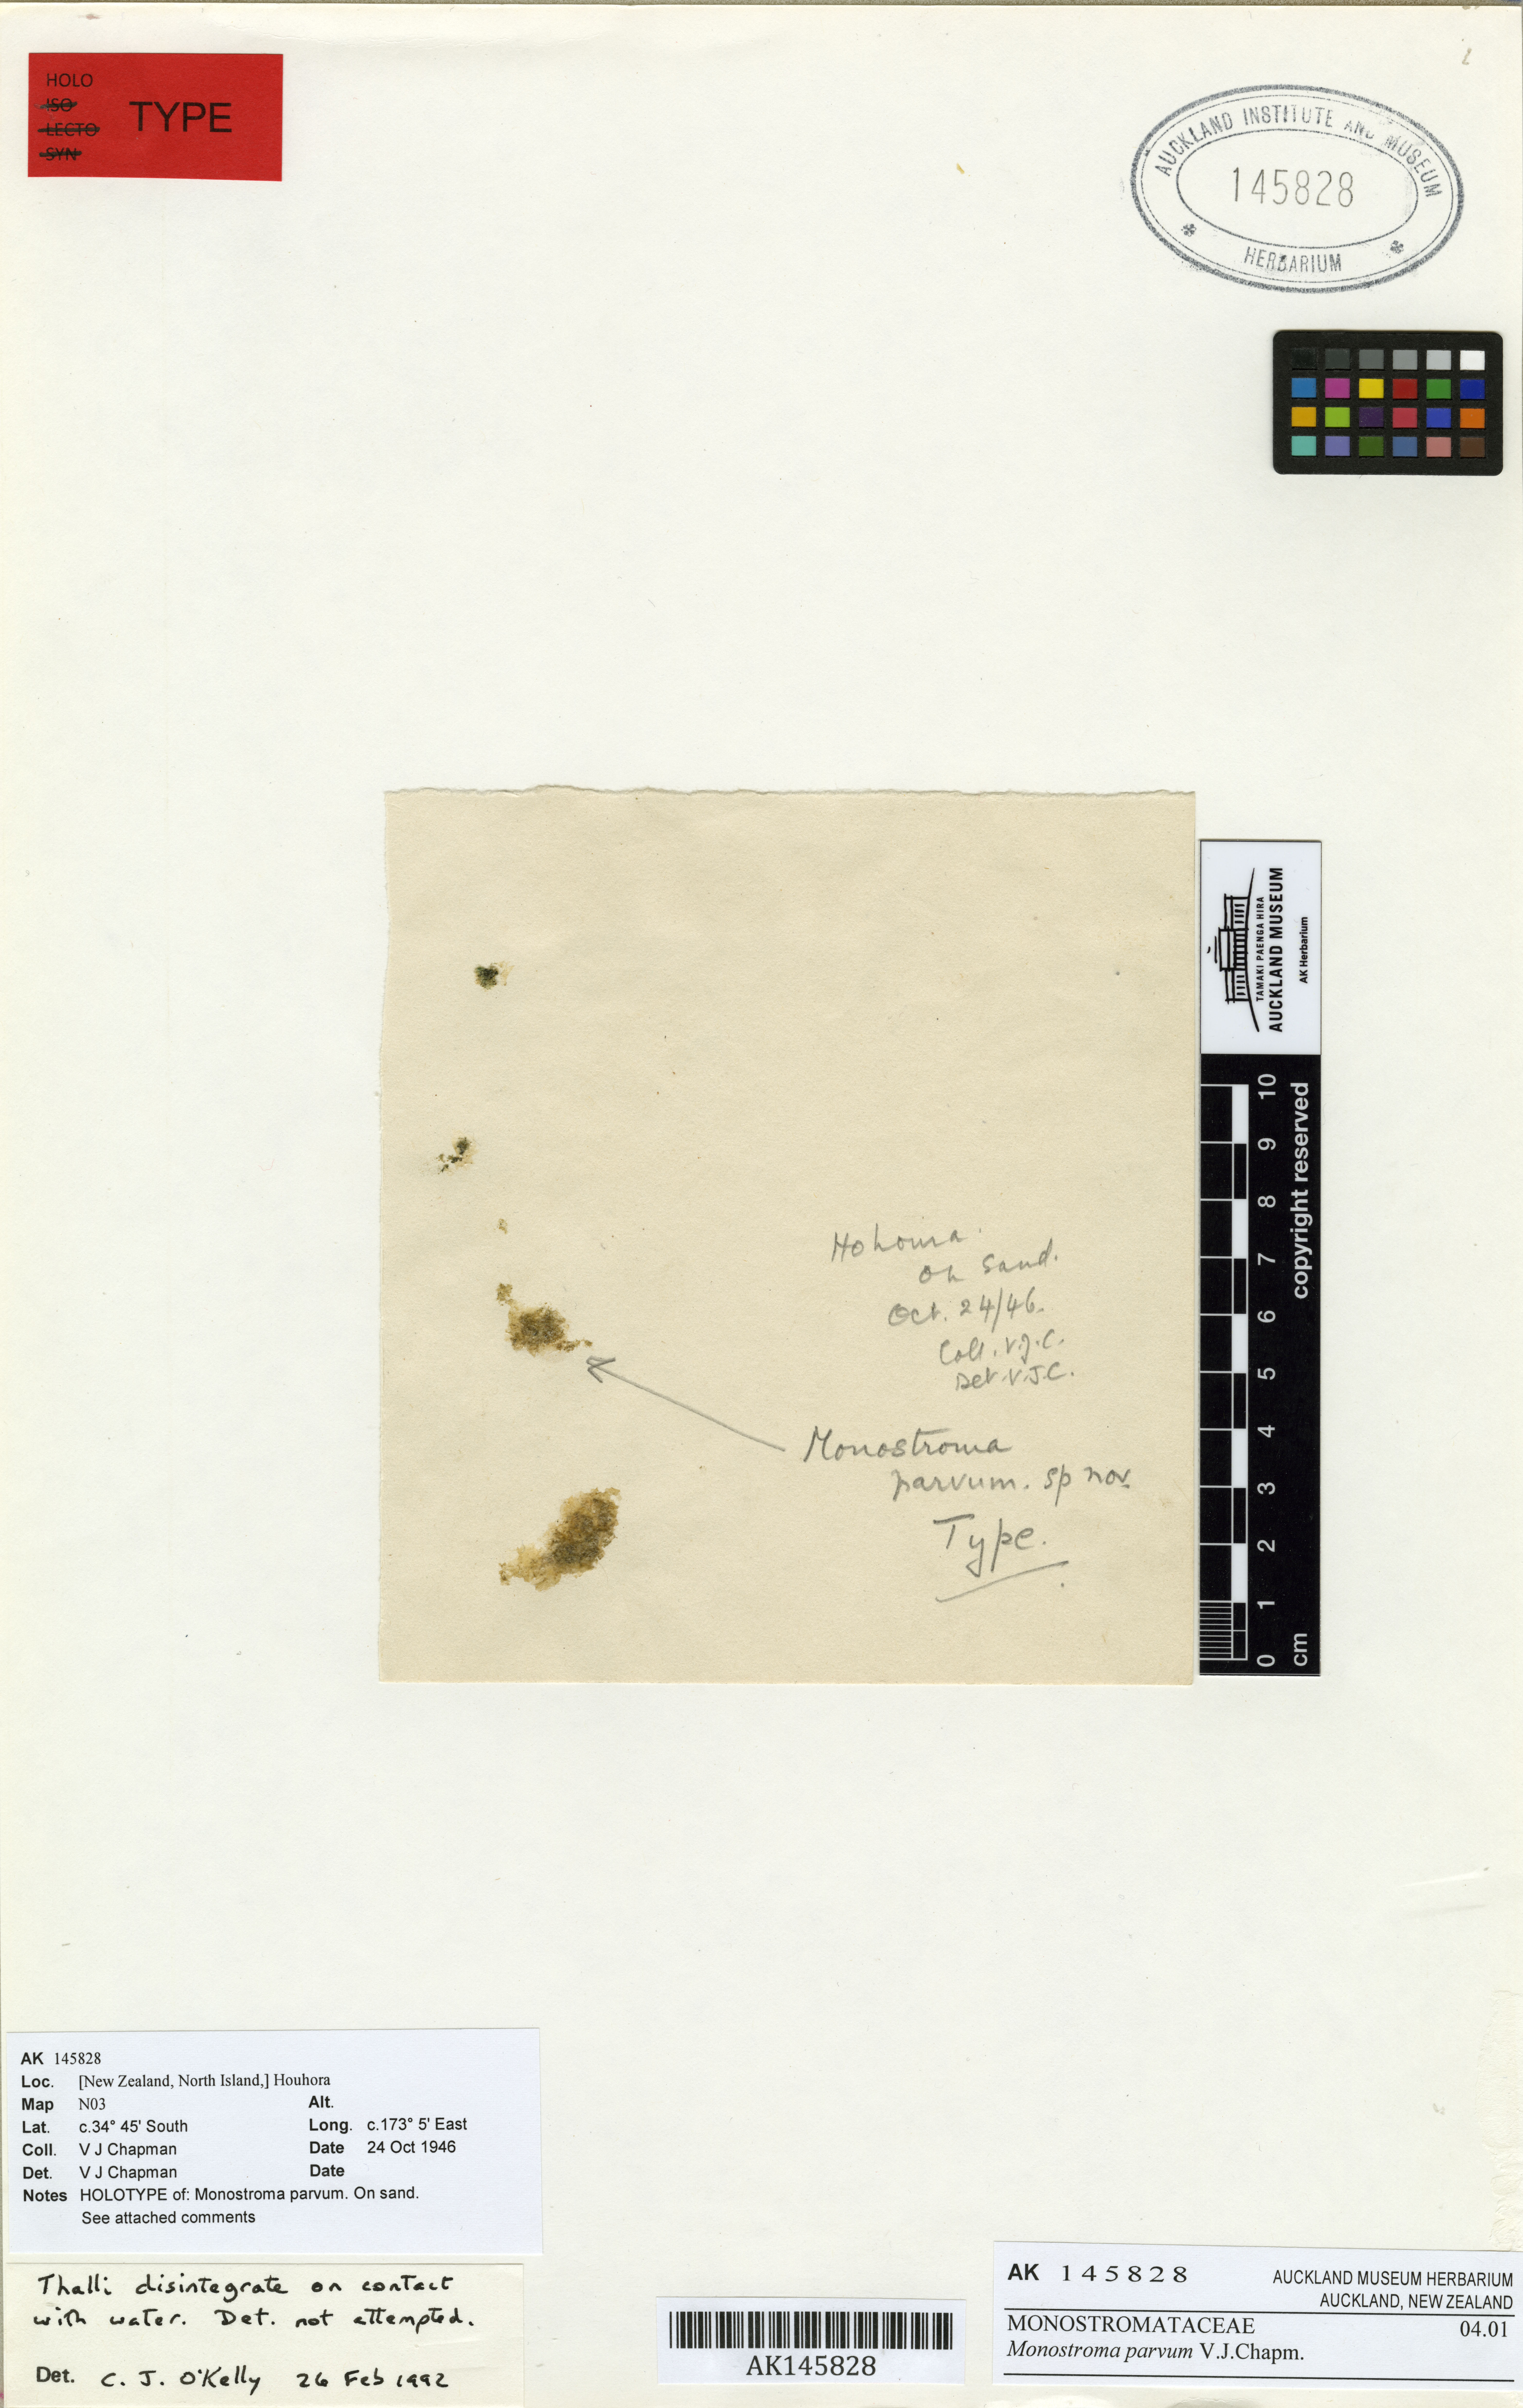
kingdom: Plantae
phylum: Chlorophyta
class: Ulvophyceae
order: Ulvales
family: Monostromataceae
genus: Monostroma
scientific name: Monostroma parvum
